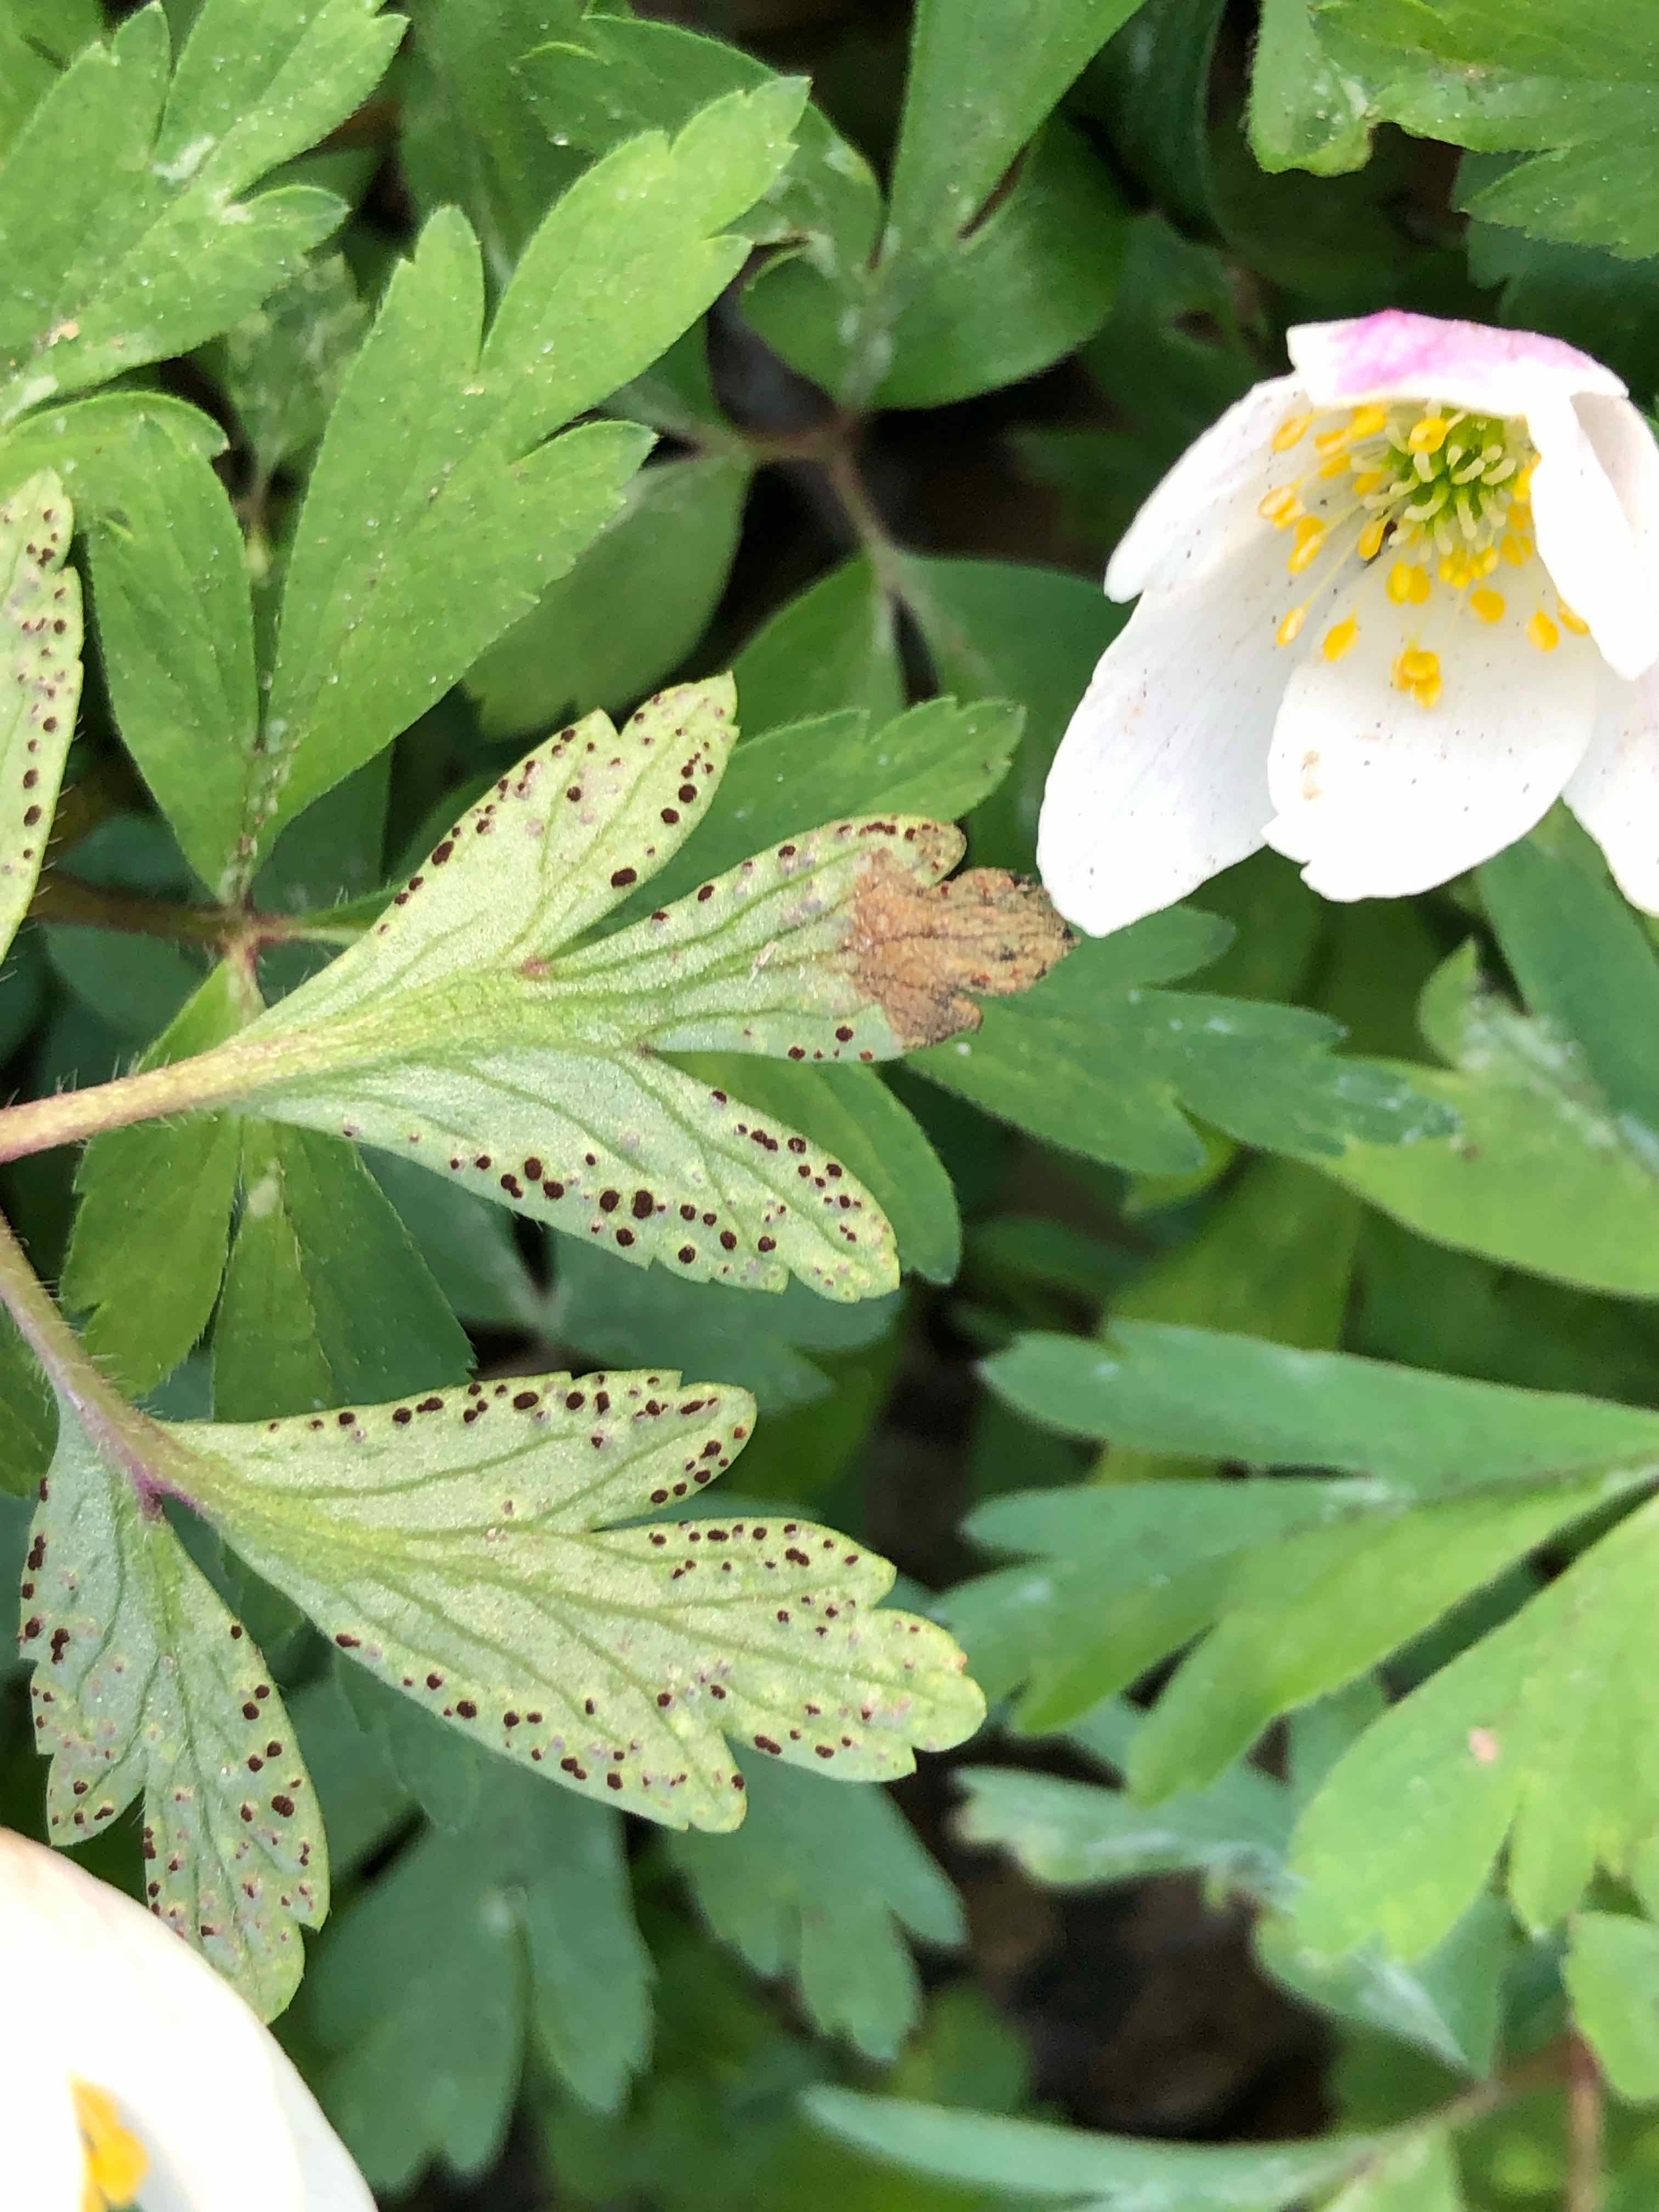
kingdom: Fungi
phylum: Basidiomycota
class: Pucciniomycetes
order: Pucciniales
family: Tranzscheliaceae
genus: Tranzschelia
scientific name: Tranzschelia anemones
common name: anemone-knæksporerust
